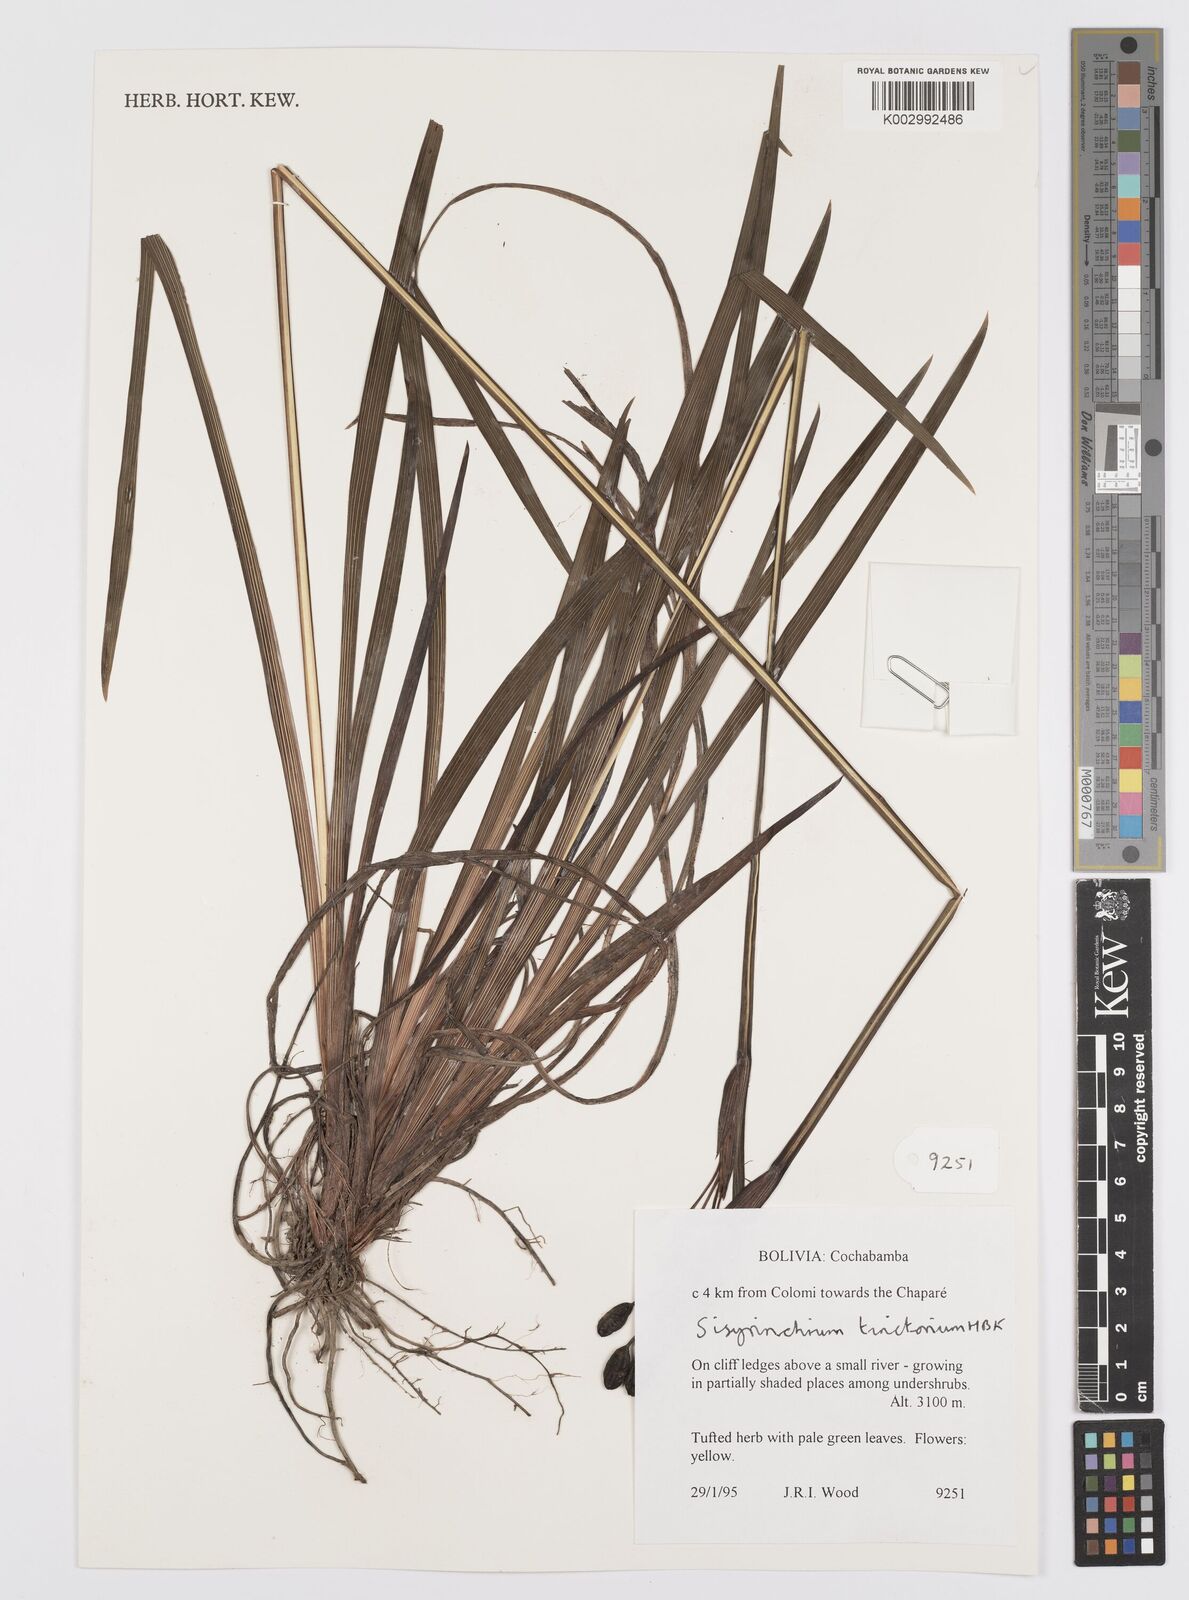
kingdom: Plantae
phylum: Tracheophyta
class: Liliopsida
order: Asparagales
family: Iridaceae
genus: Sisyrinchium
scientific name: Sisyrinchium tinctorium
